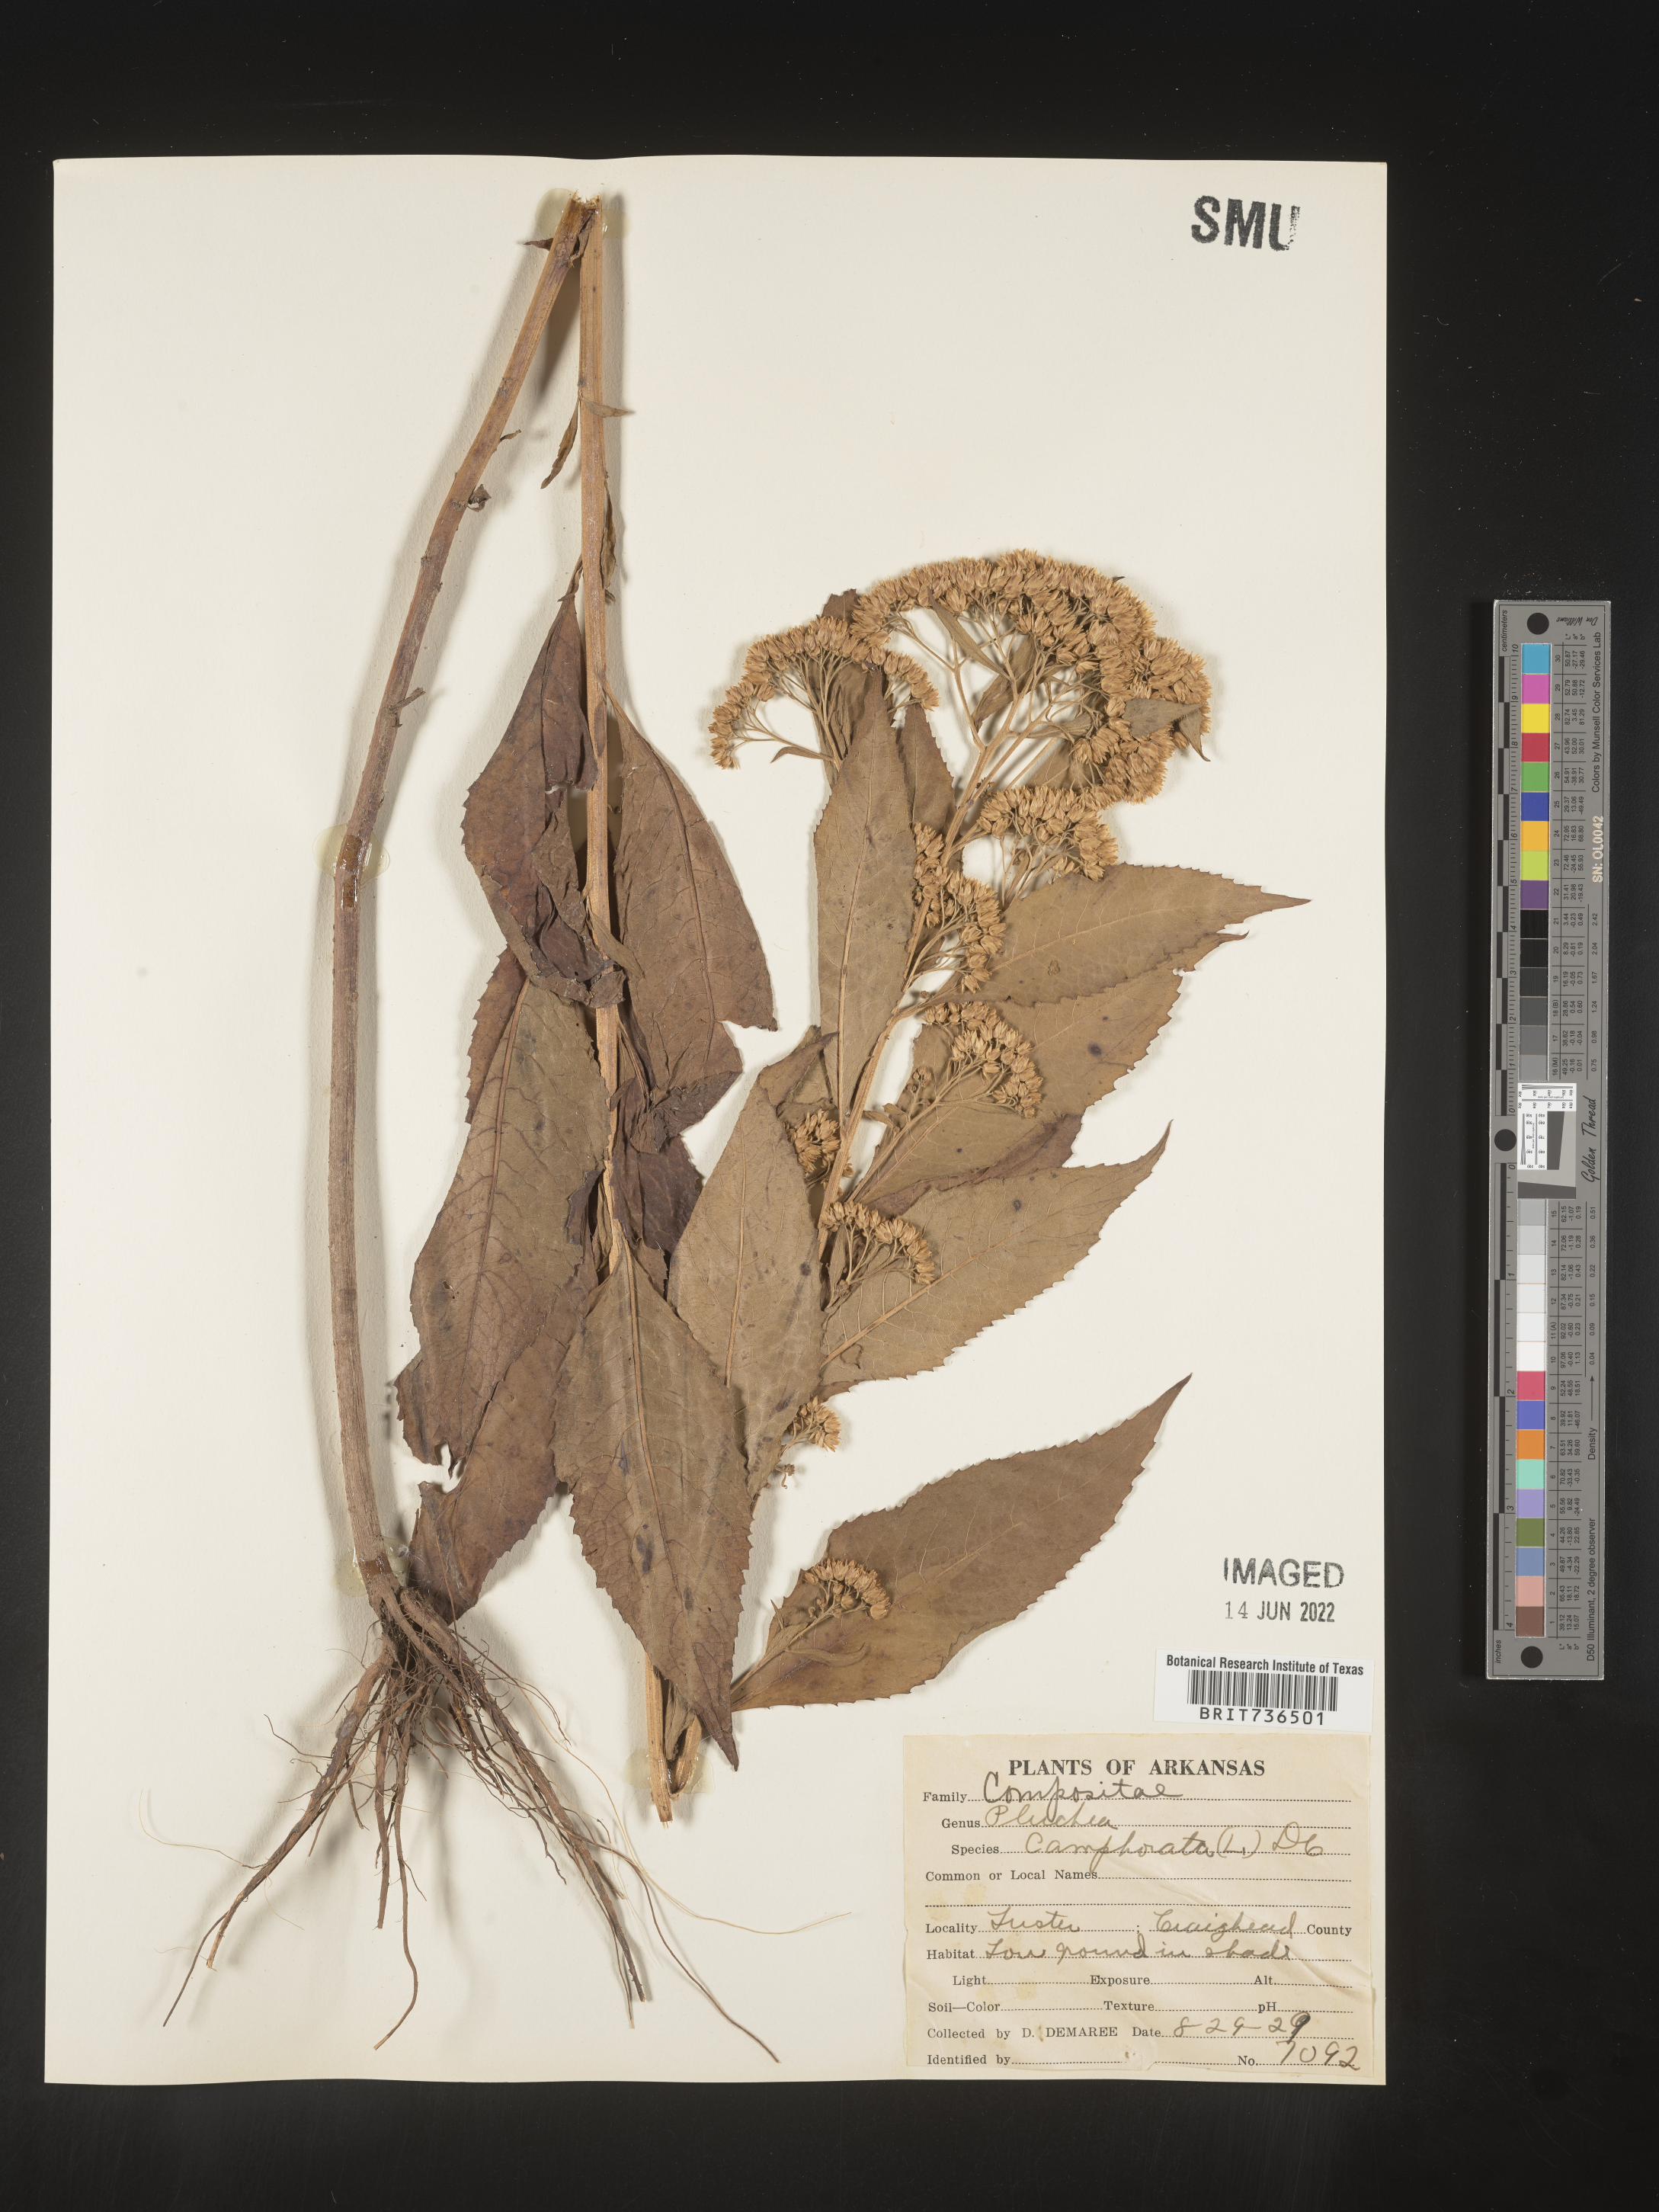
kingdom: Plantae
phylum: Tracheophyta
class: Magnoliopsida
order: Asterales
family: Asteraceae
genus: Pluchea
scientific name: Pluchea camphorata
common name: Camphor pluchea
